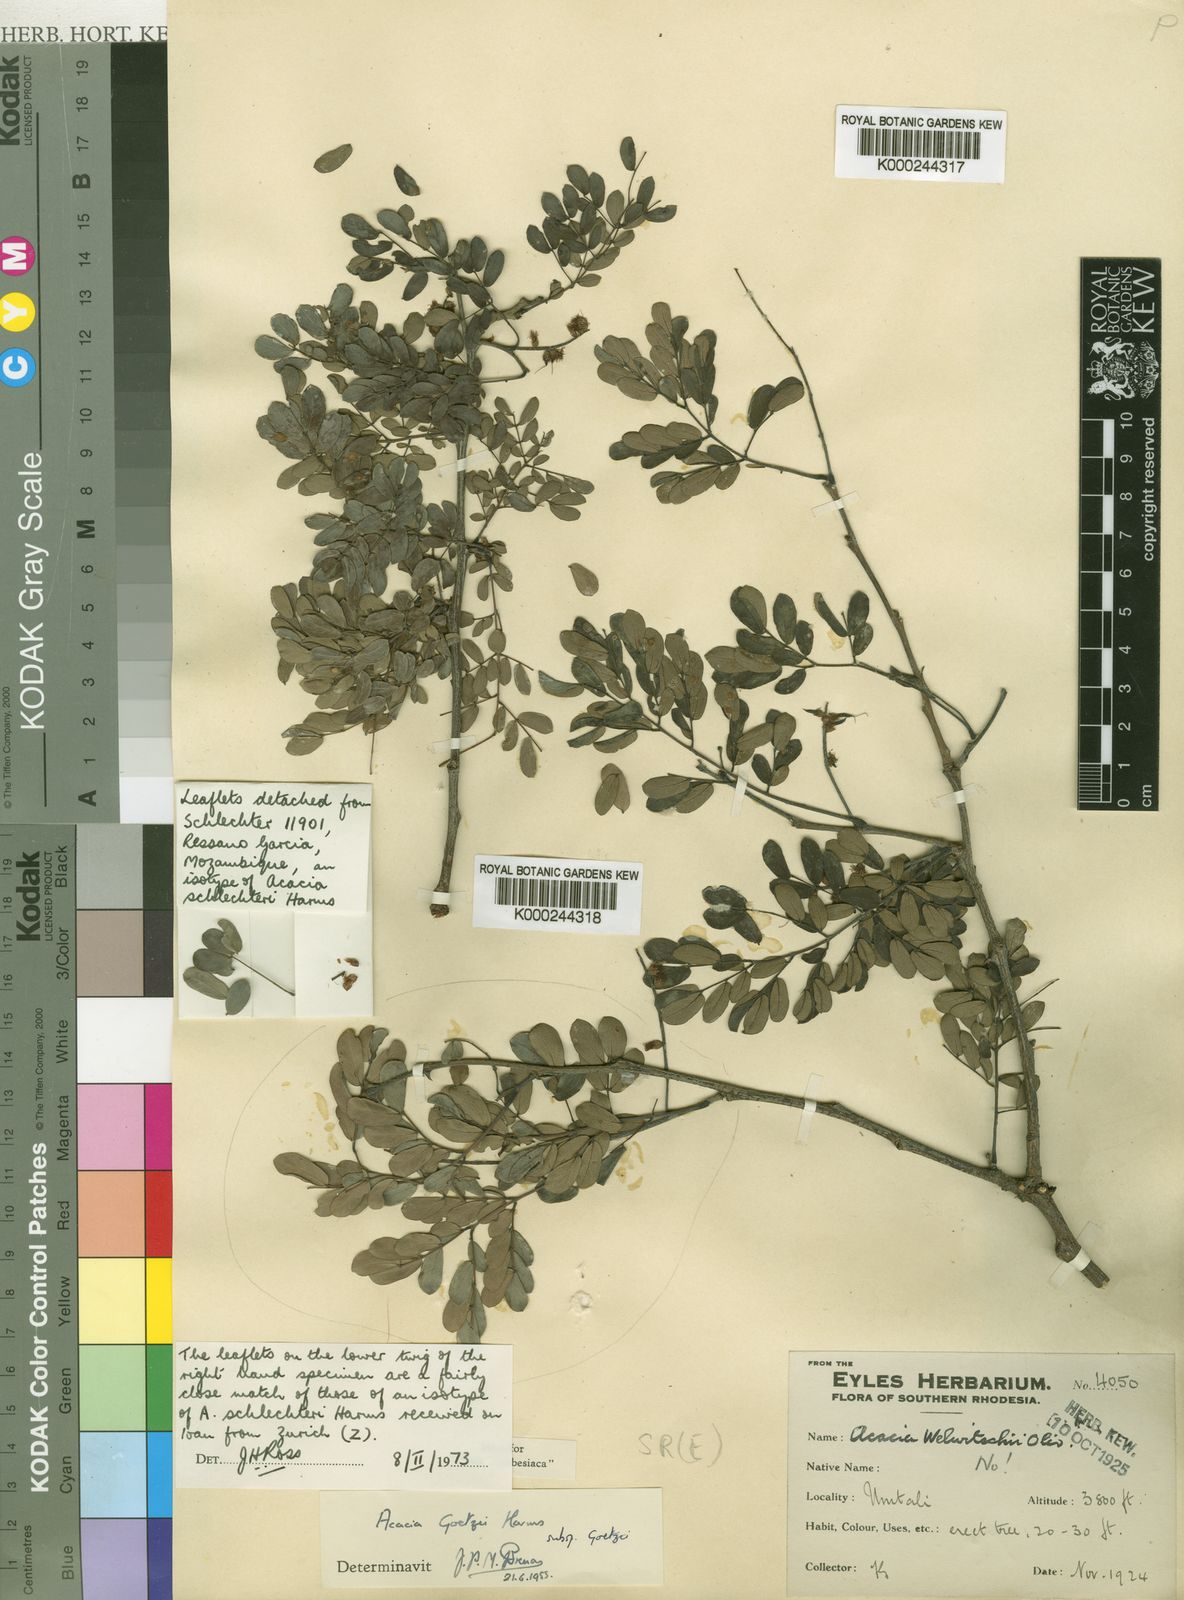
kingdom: Plantae
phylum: Tracheophyta
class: Magnoliopsida
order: Fabales
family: Fabaceae
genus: Senegalia
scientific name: Senegalia goetzei
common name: Purplepod acacia
